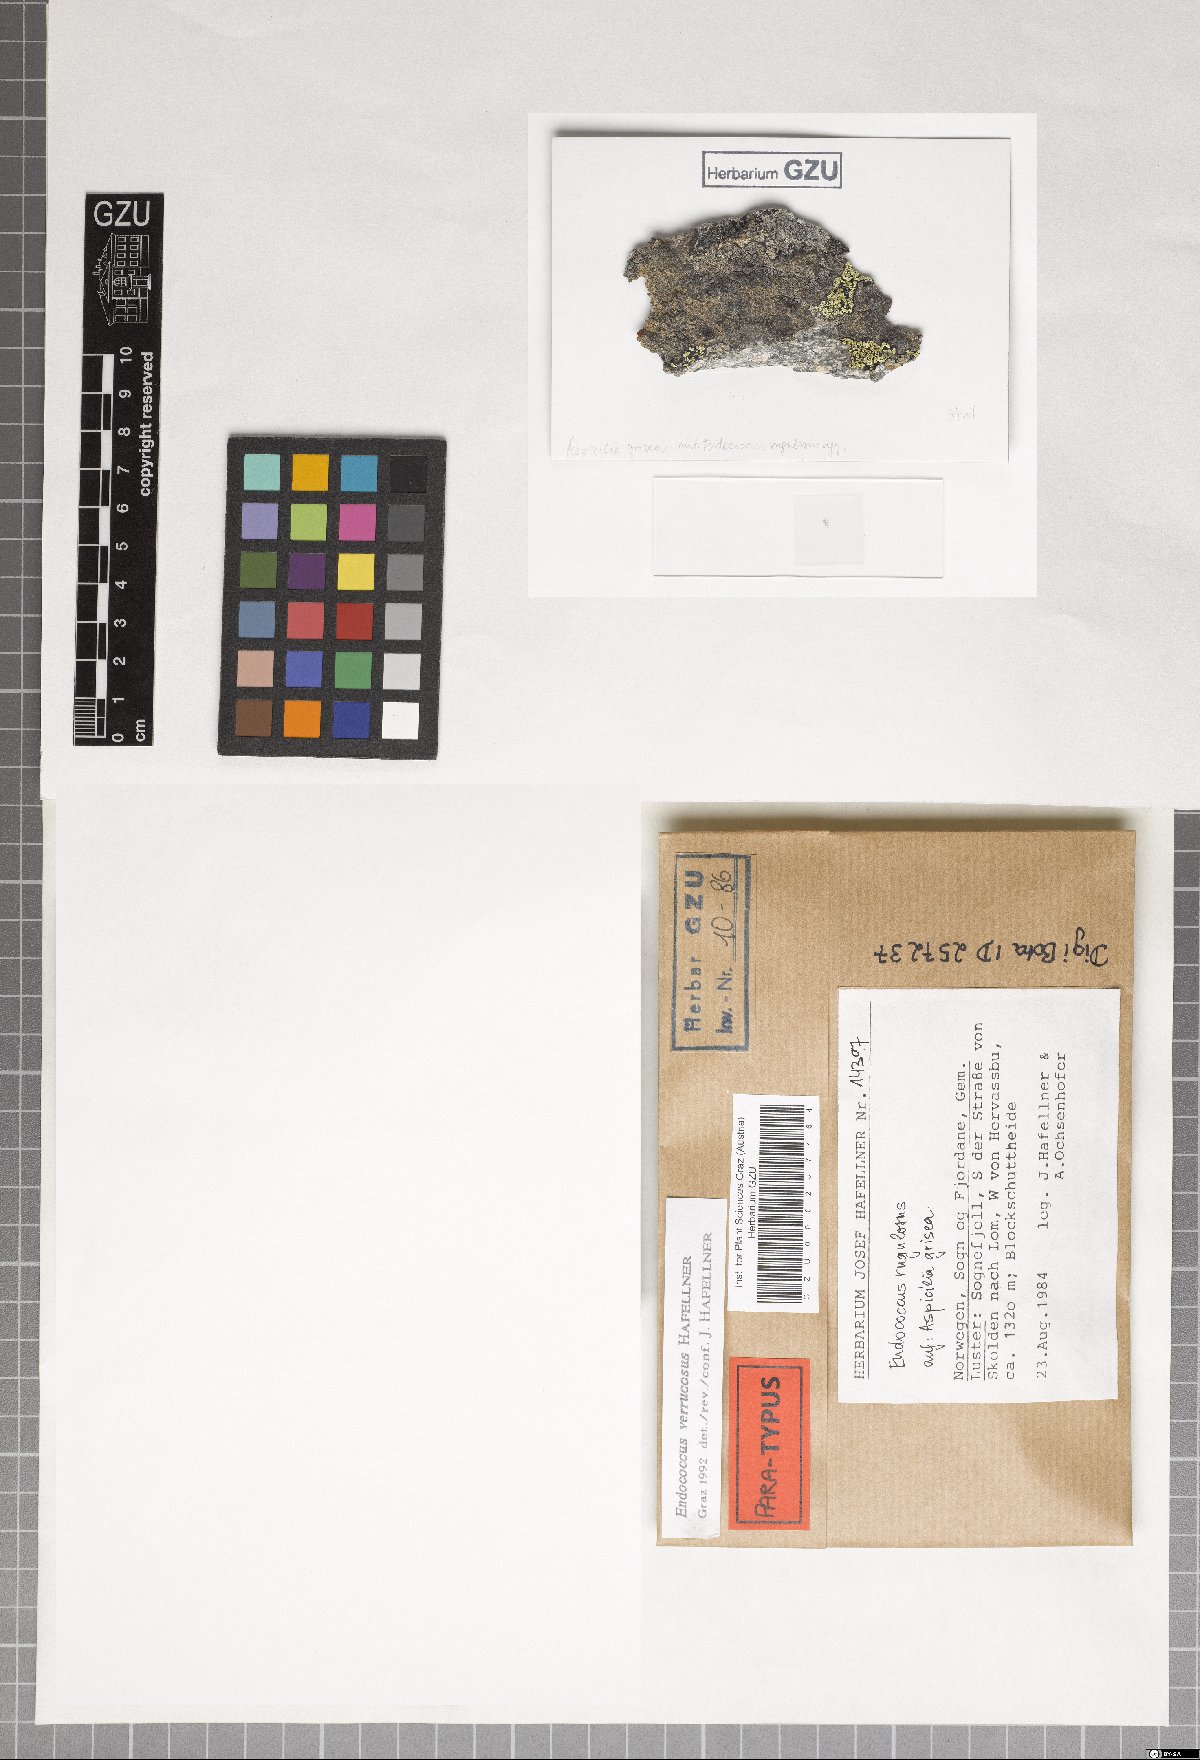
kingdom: Fungi
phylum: Ascomycota
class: Dothideomycetes
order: Dothideales
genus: Endococcus
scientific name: Endococcus verrucosus
